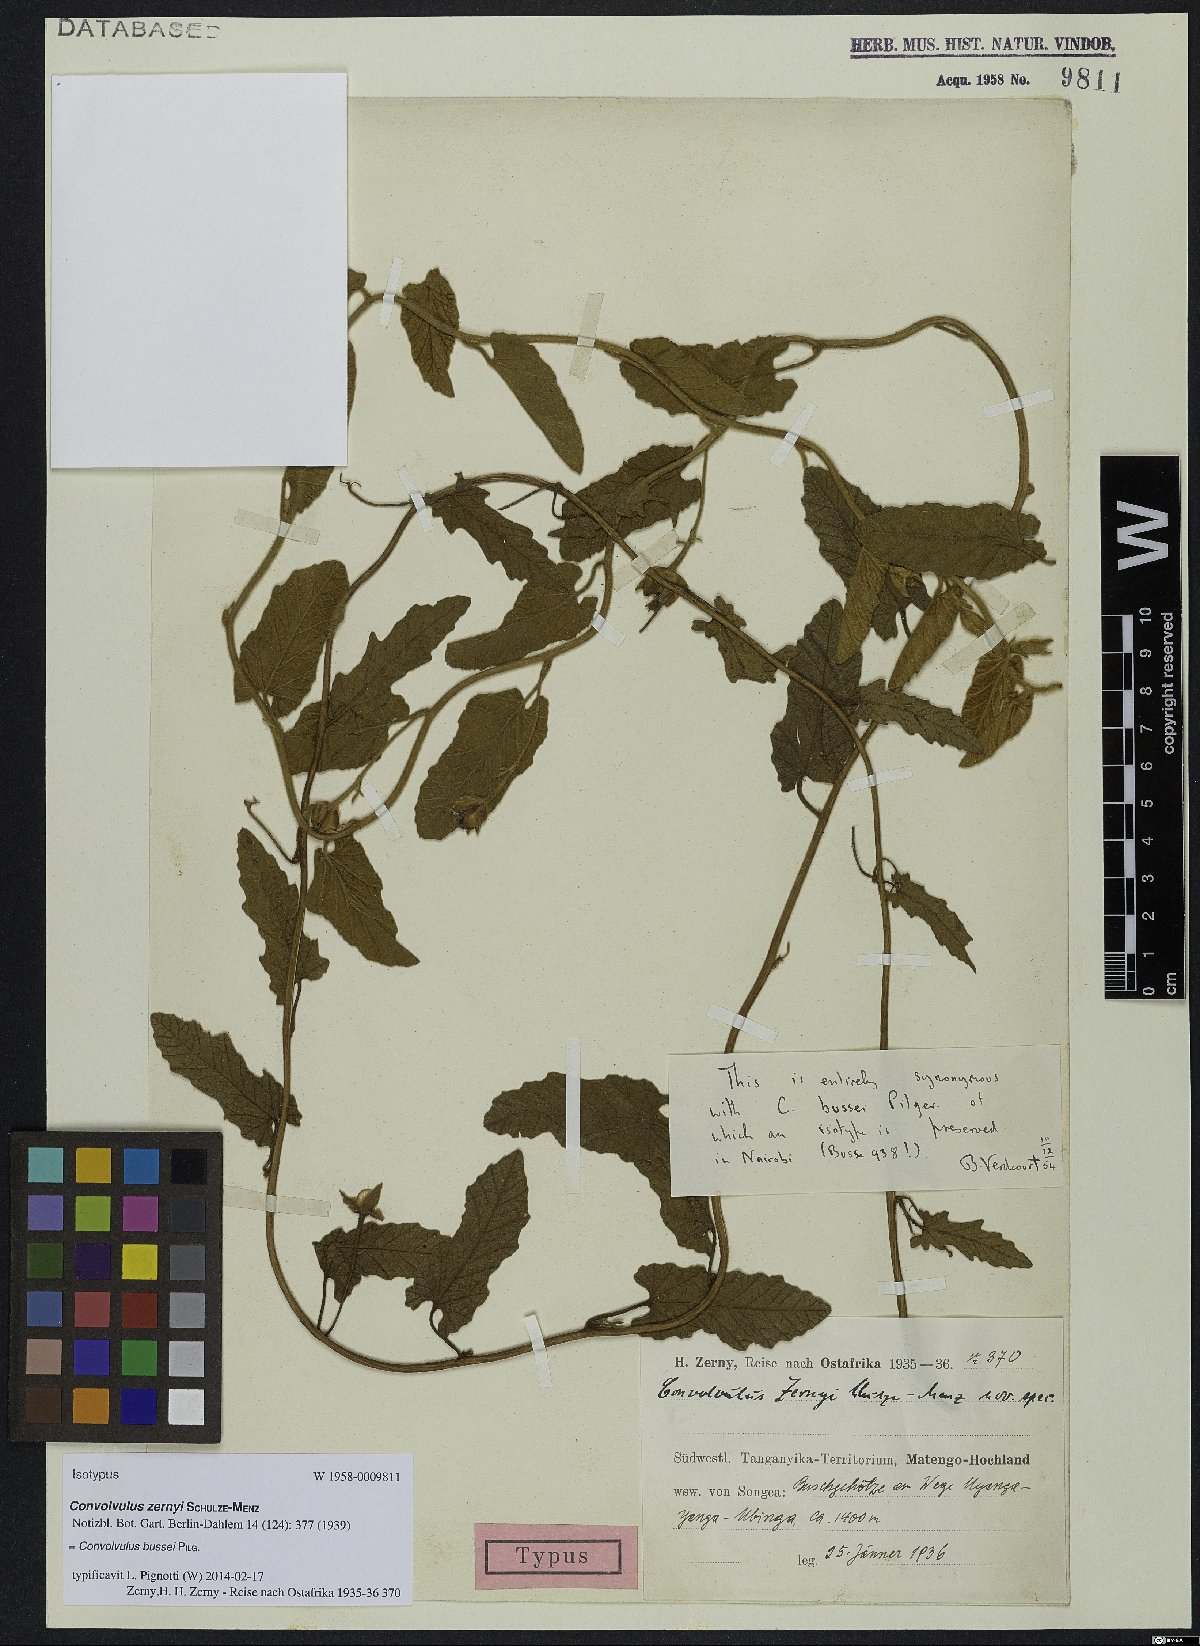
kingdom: Plantae
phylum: Tracheophyta
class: Magnoliopsida
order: Solanales
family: Convolvulaceae
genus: Convolvulus
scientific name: Convolvulus thomsonii
